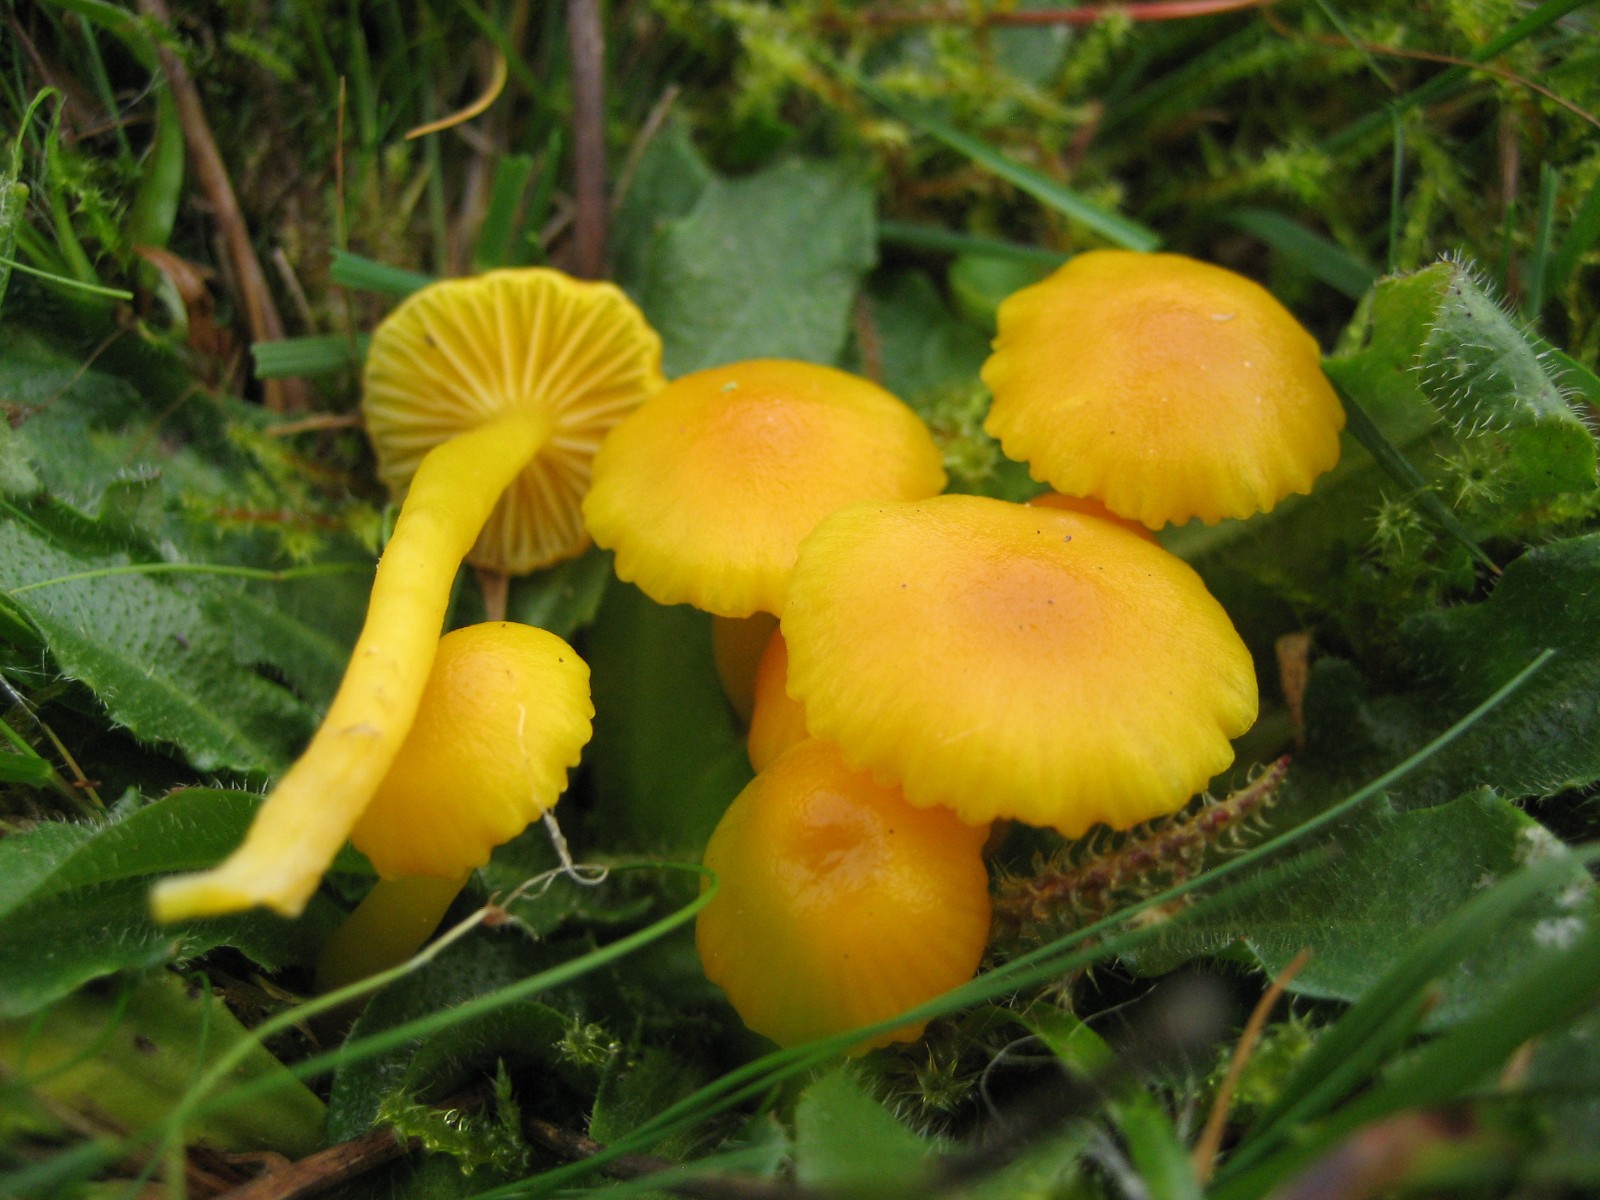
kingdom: Fungi
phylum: Basidiomycota
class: Agaricomycetes
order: Agaricales
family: Hygrophoraceae
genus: Hygrocybe
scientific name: Hygrocybe ceracea
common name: voksgul vokshat
